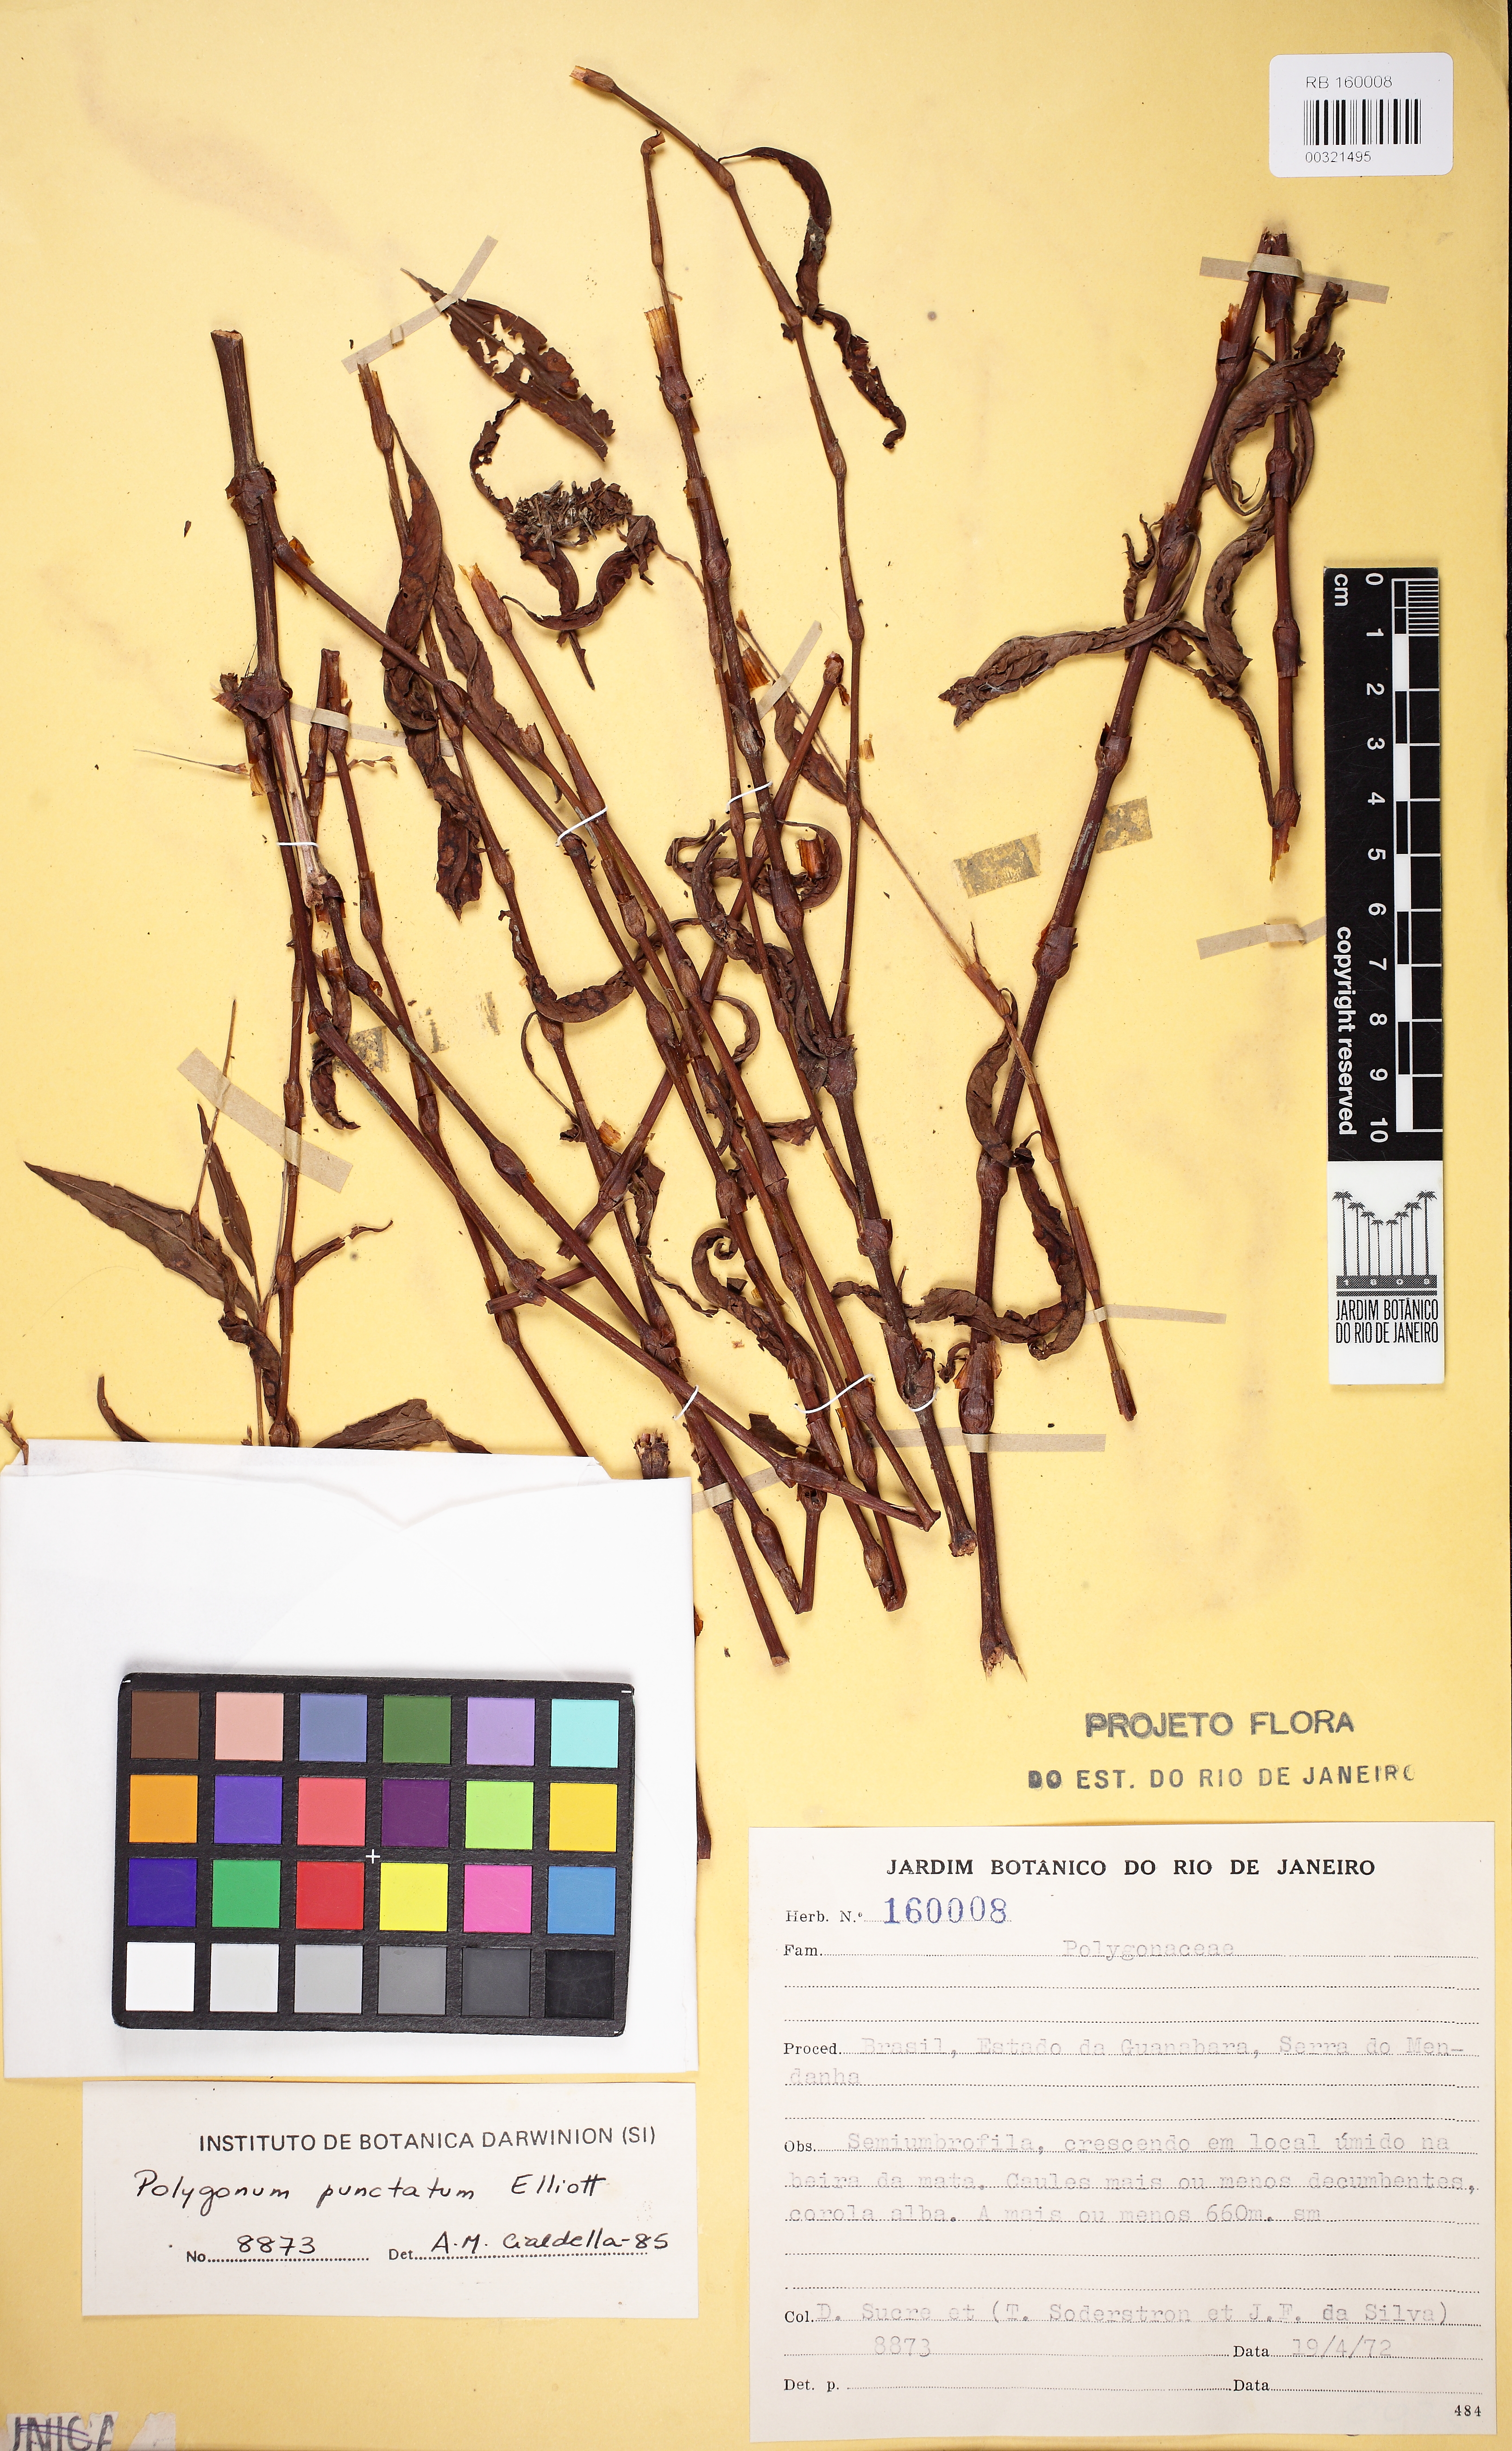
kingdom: Plantae
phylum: Tracheophyta
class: Magnoliopsida
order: Caryophyllales
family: Polygonaceae
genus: Persicaria
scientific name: Persicaria punctata
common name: Dotted smartweed
